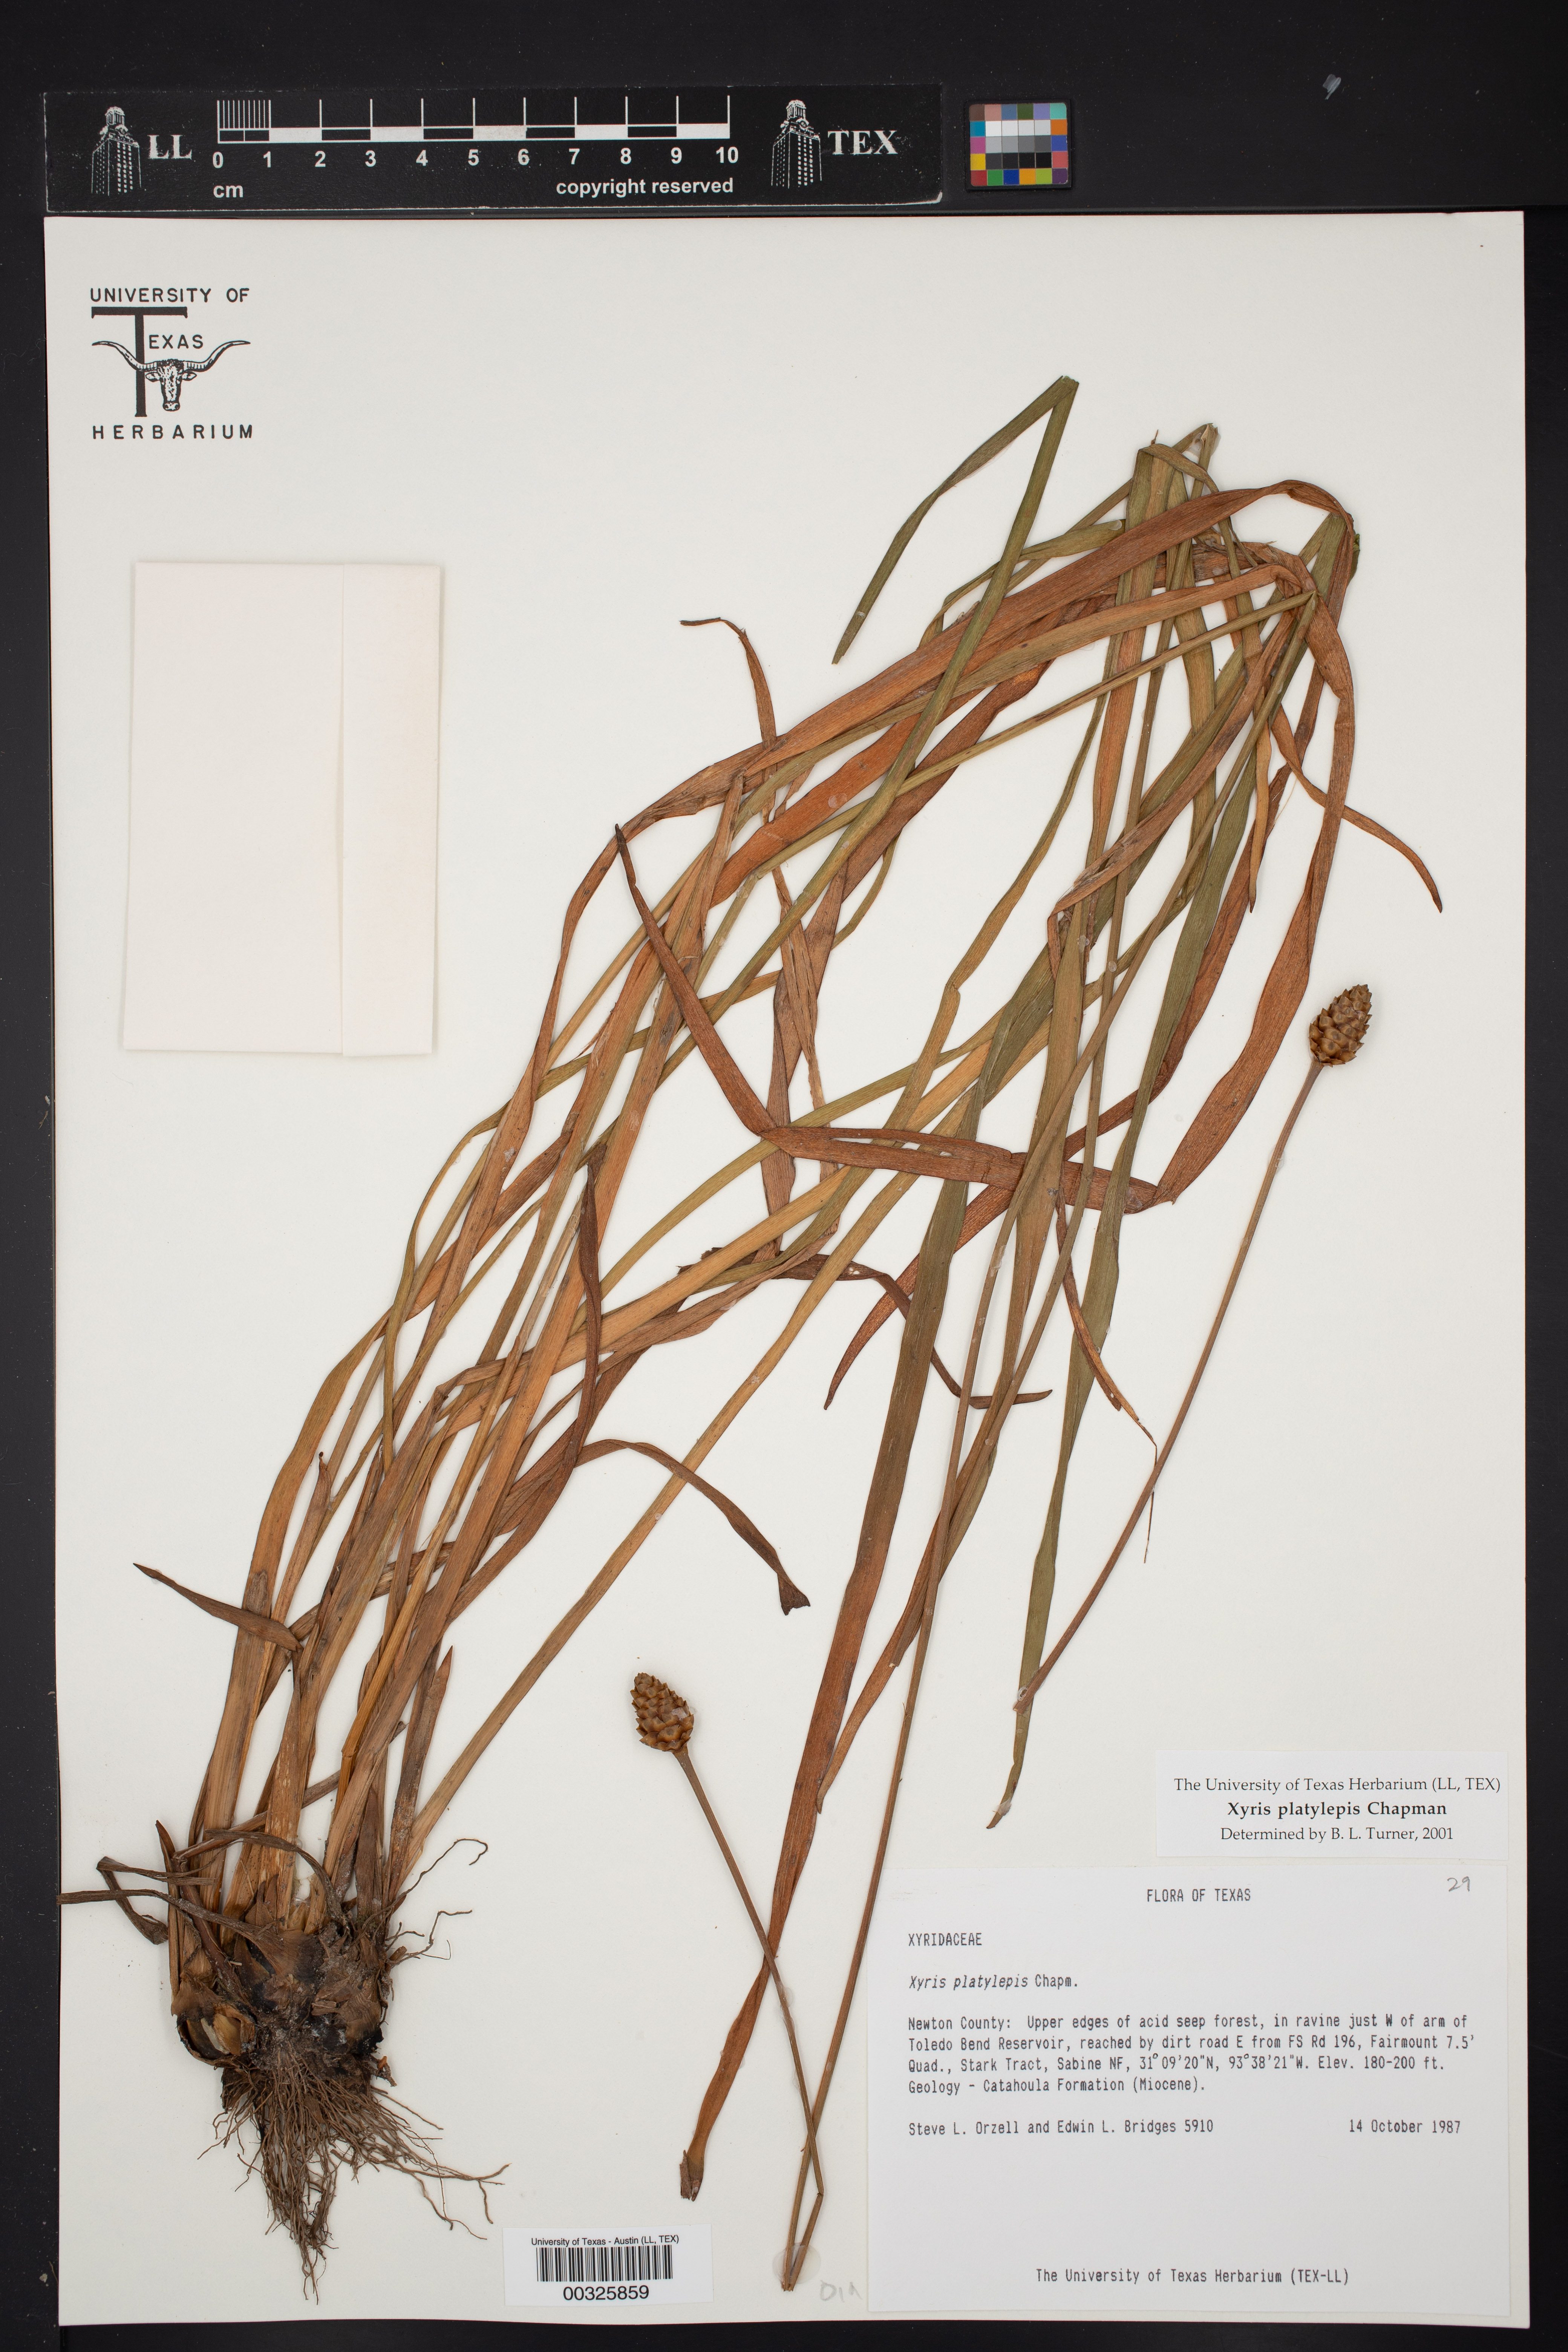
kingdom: Plantae
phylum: Tracheophyta
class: Liliopsida
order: Poales
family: Xyridaceae
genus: Xyris
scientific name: Xyris platylepis
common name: Tall yelloweyed grass
